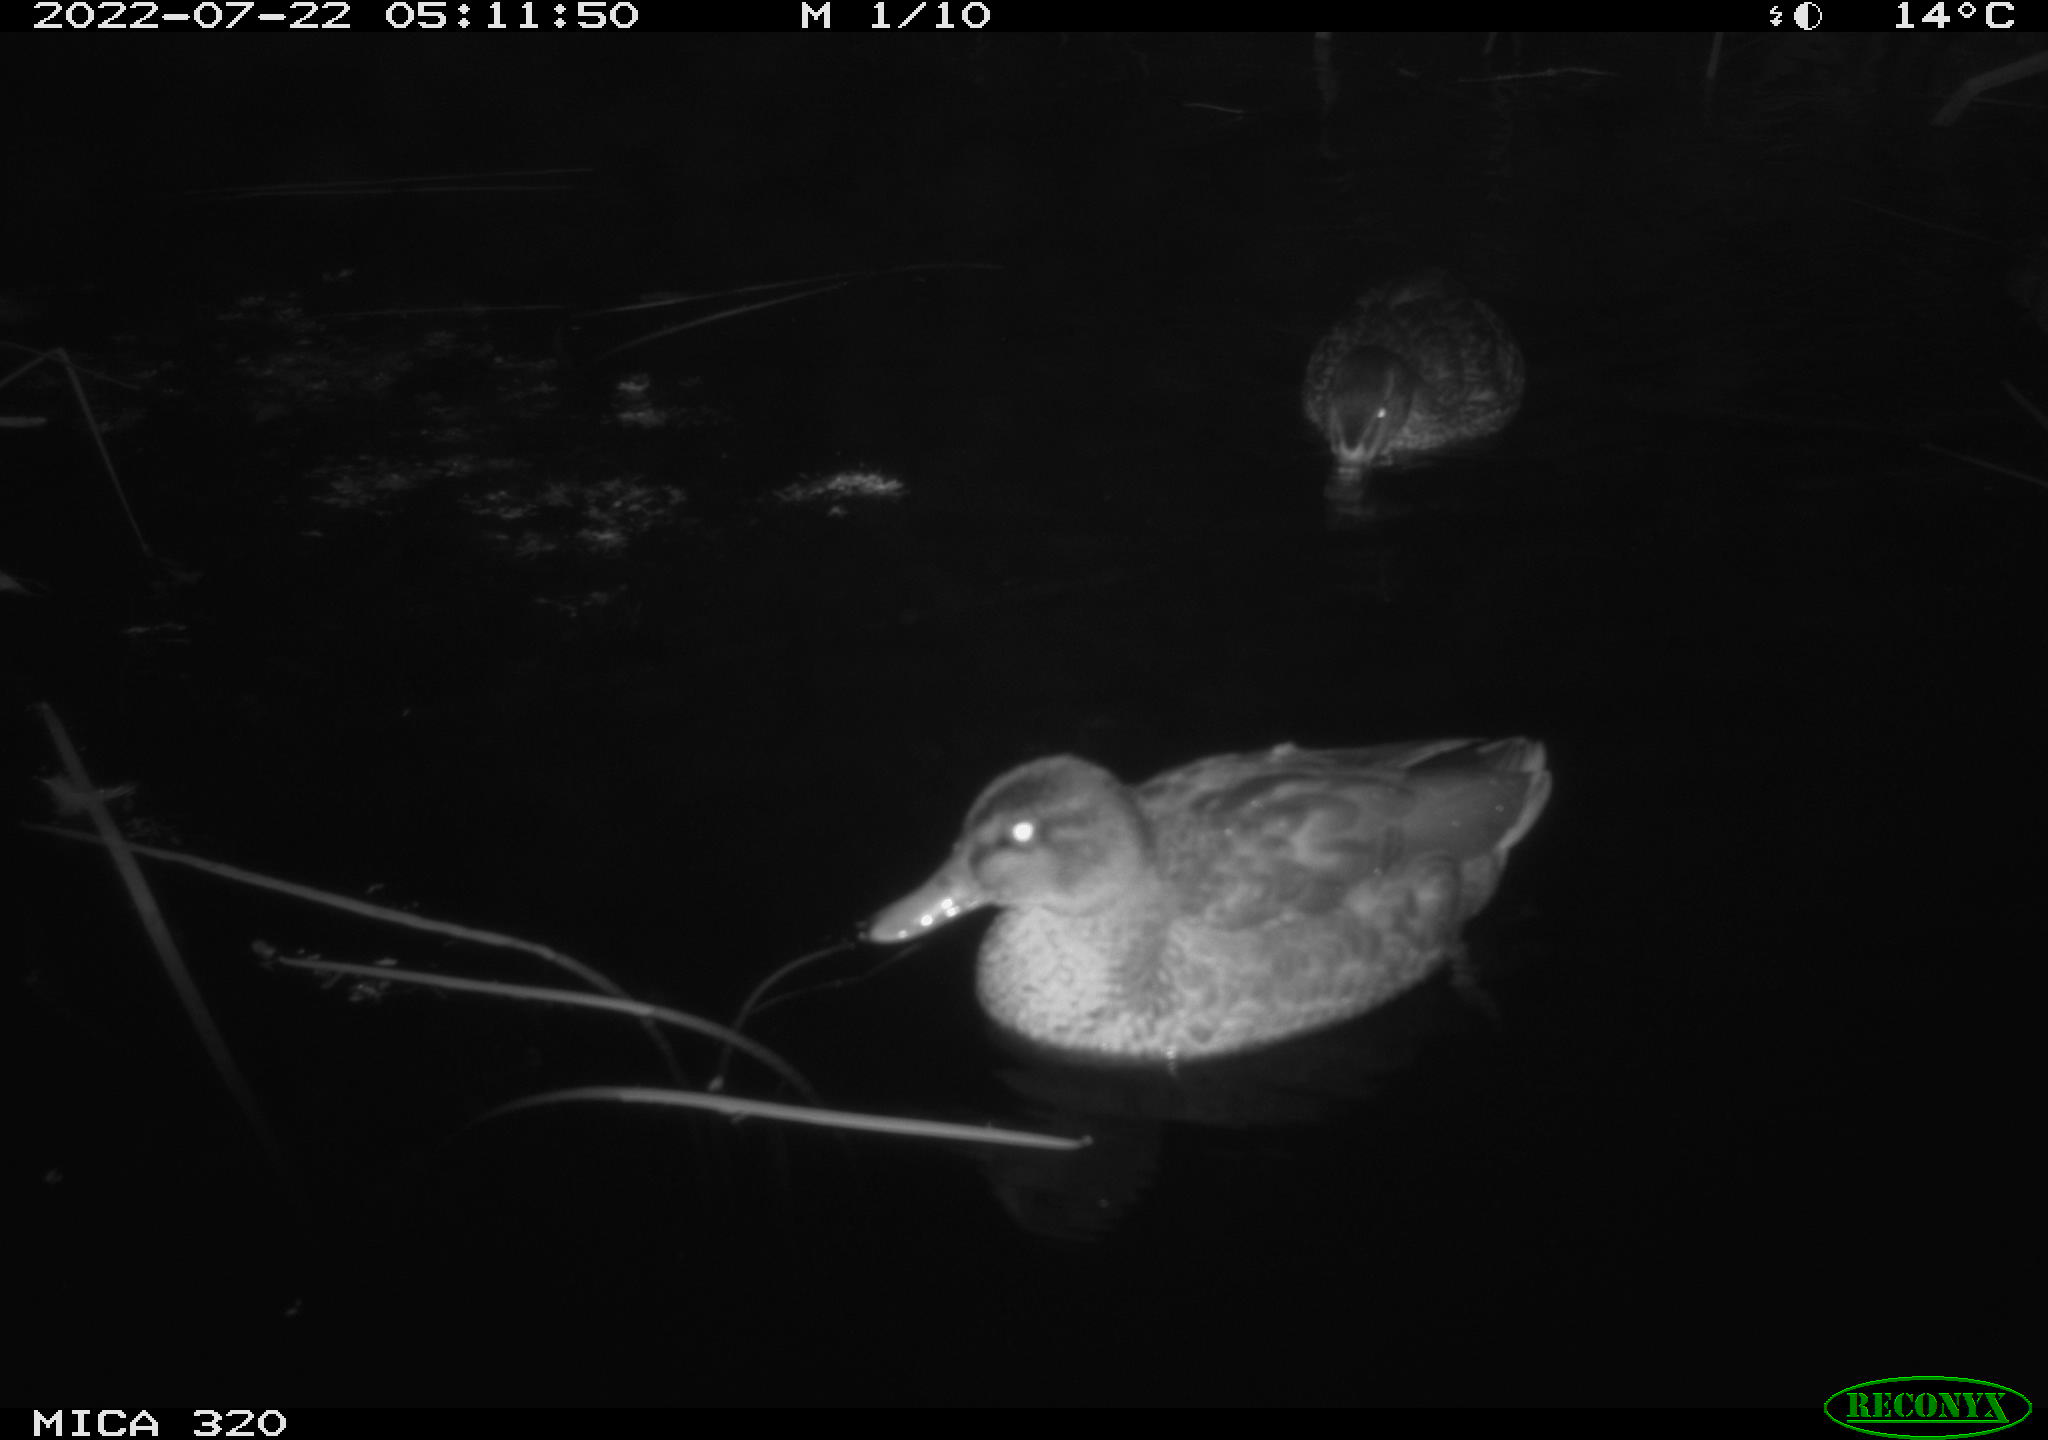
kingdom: Animalia
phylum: Chordata
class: Aves
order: Anseriformes
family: Anatidae
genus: Anas
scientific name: Anas platyrhynchos
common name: Mallard
